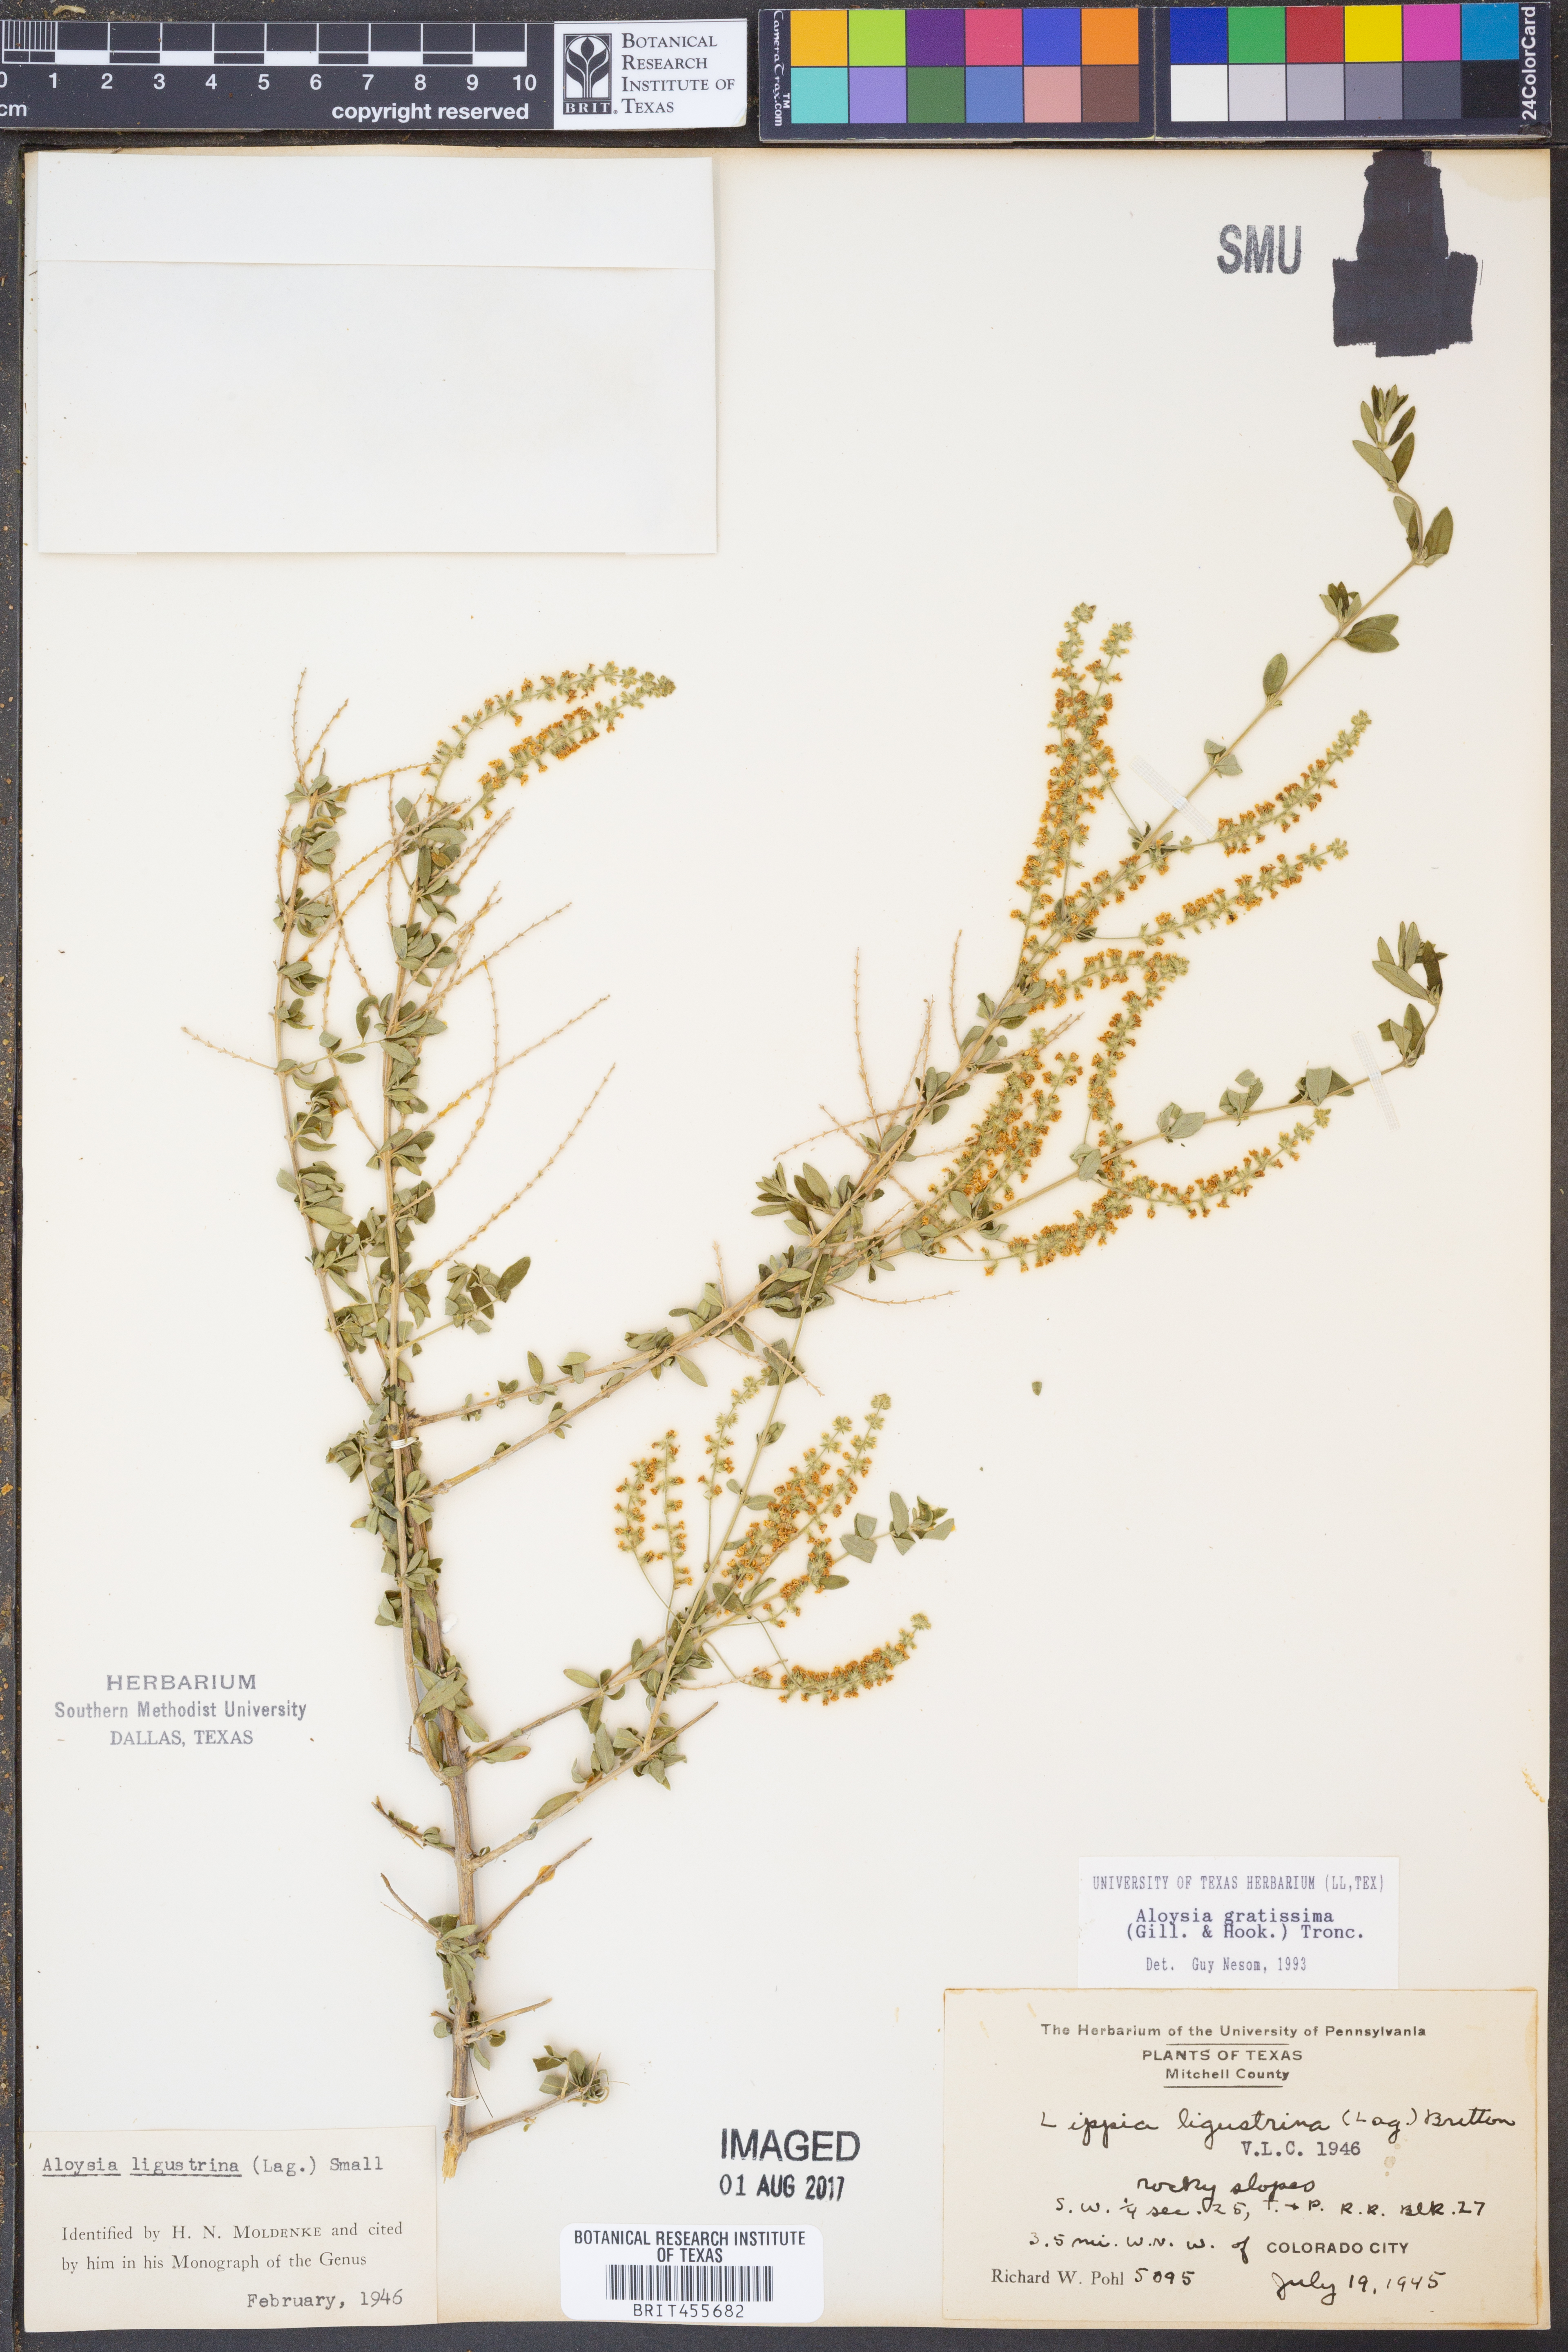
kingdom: Plantae
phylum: Tracheophyta
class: Magnoliopsida
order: Lamiales
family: Verbenaceae
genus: Aloysia
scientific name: Aloysia gratissima
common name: Common bee-brush
